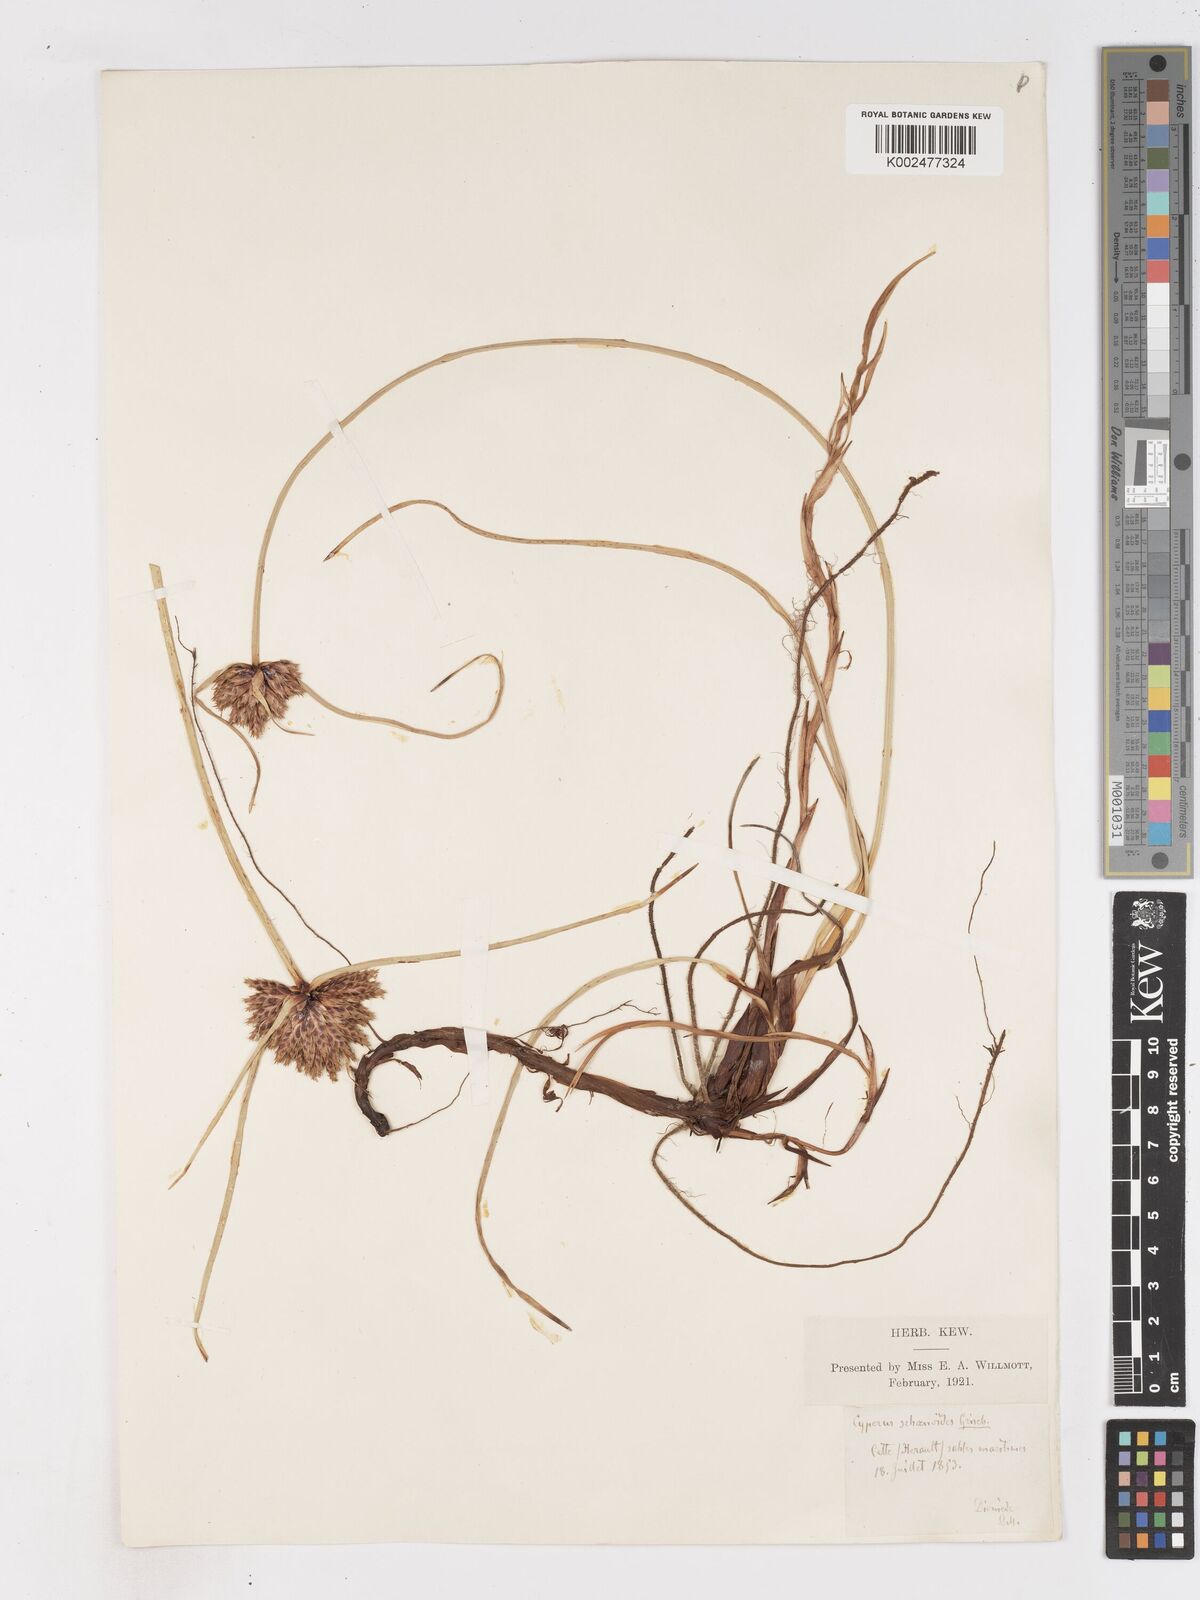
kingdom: Plantae
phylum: Tracheophyta
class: Liliopsida
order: Poales
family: Cyperaceae
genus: Cyperus
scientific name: Cyperus capitatus
